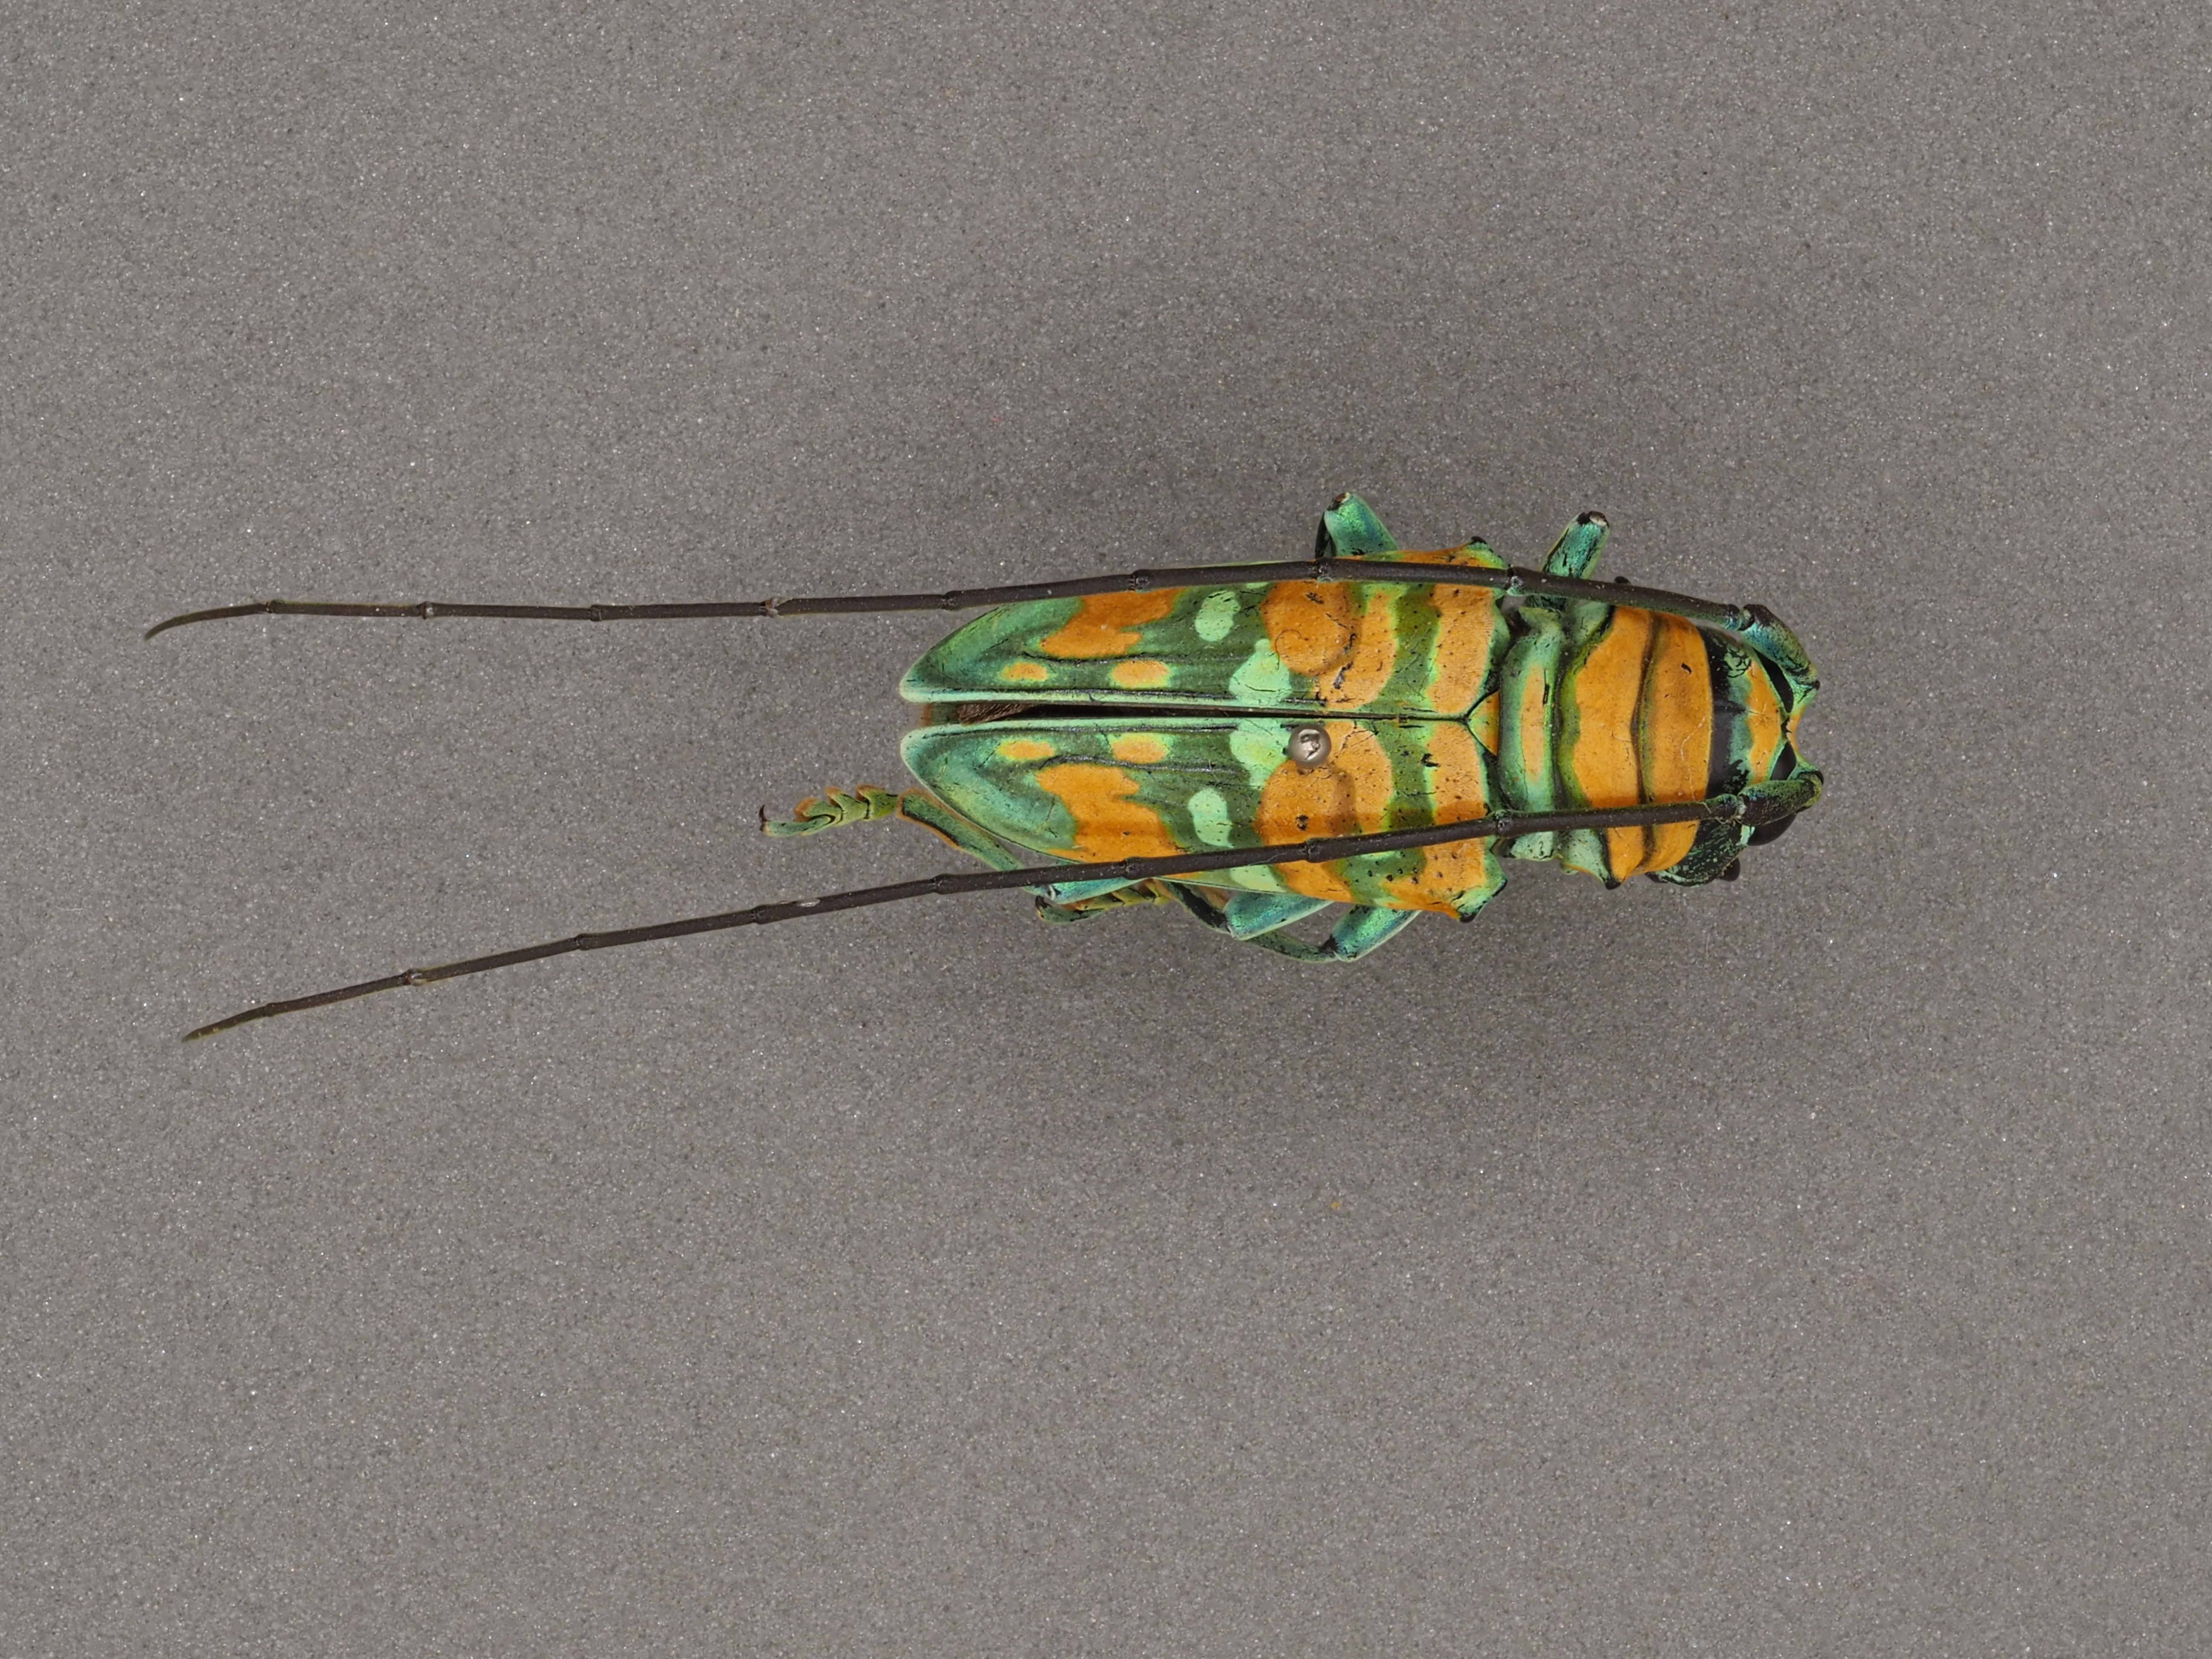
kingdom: Animalia
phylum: Arthropoda
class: Insecta
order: Coleoptera
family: Cerambycidae
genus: Sternotomis
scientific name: Sternotomis flavomaculata
